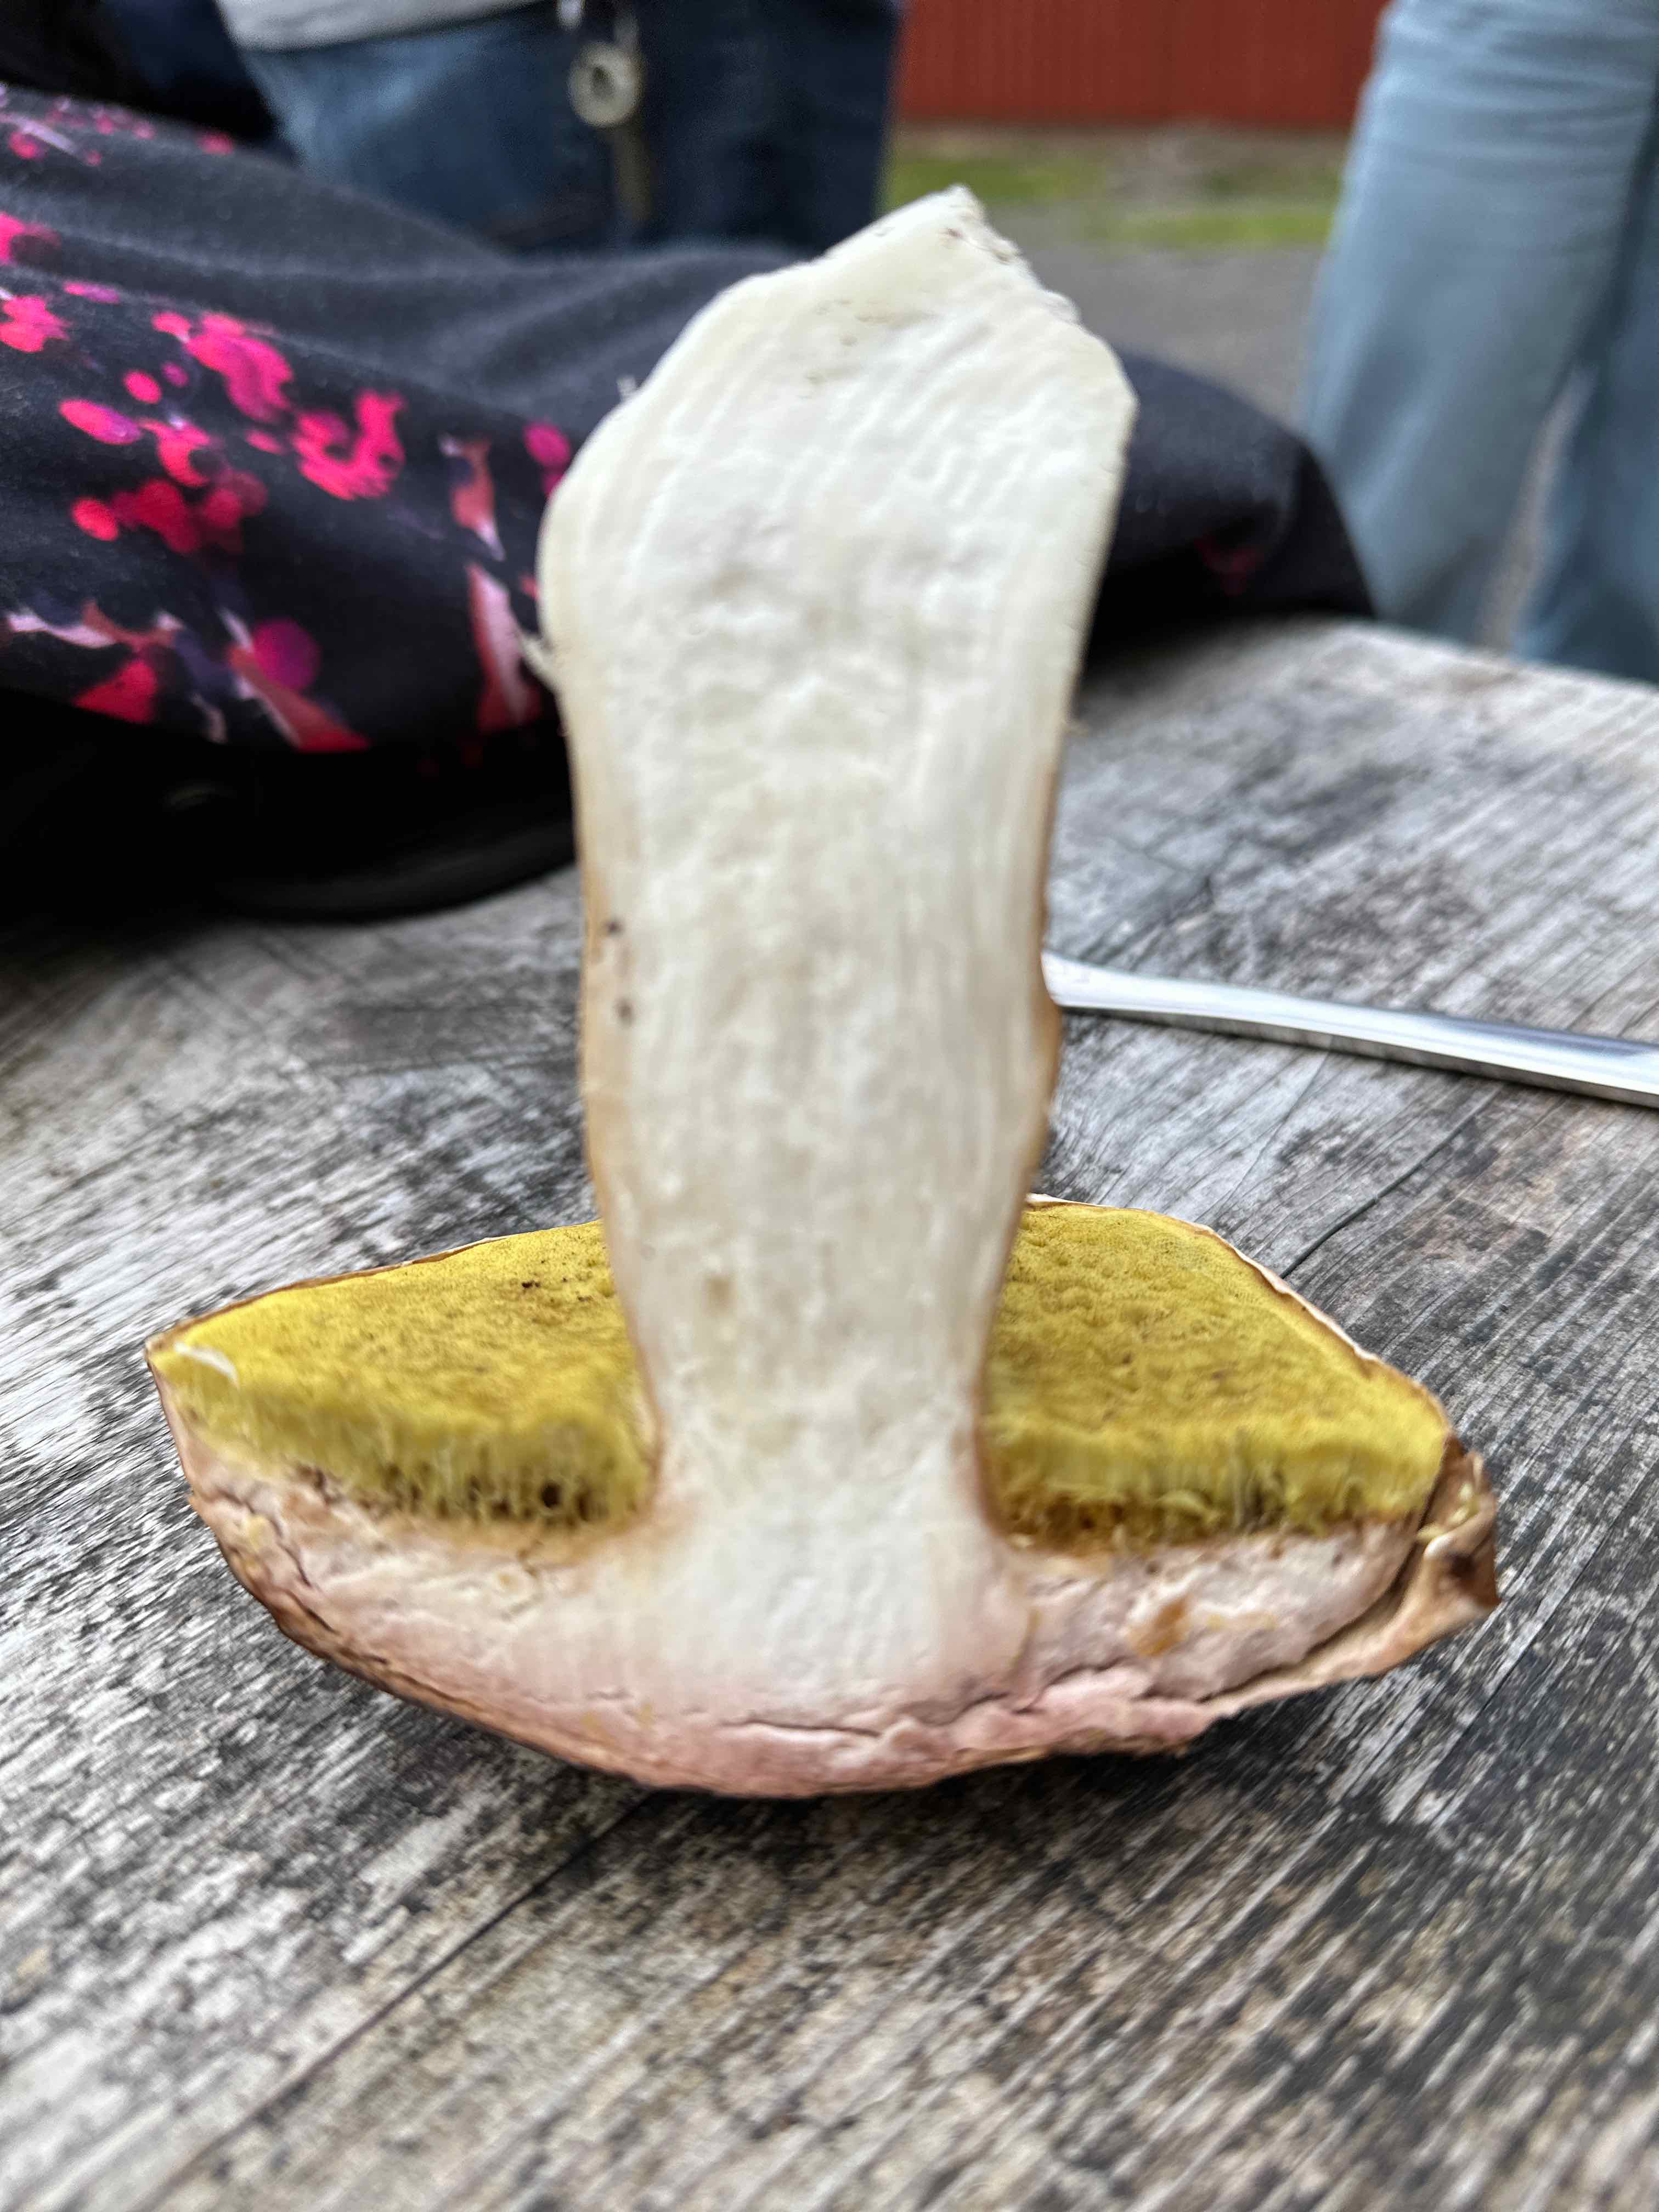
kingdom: Fungi
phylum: Basidiomycota
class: Agaricomycetes
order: Boletales
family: Boletaceae
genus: Boletus
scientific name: Boletus edulis
